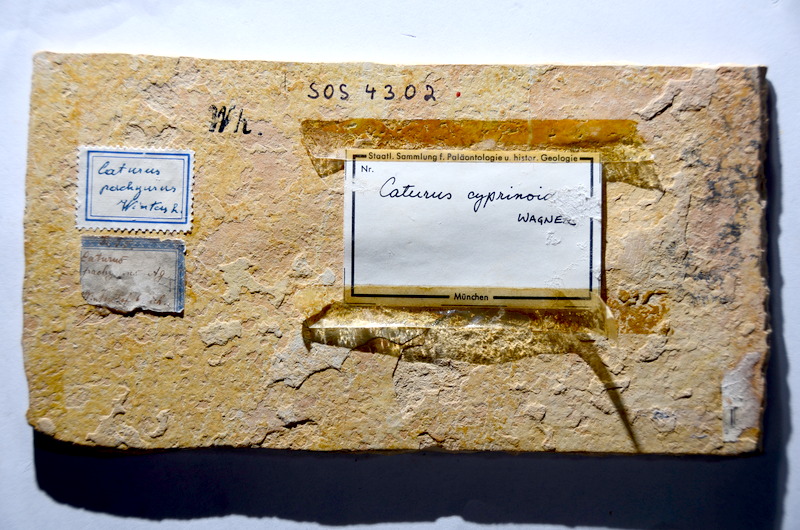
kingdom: Animalia
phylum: Chordata
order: Amiiformes
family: Caturidae
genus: Caturus
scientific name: Caturus furcatus
